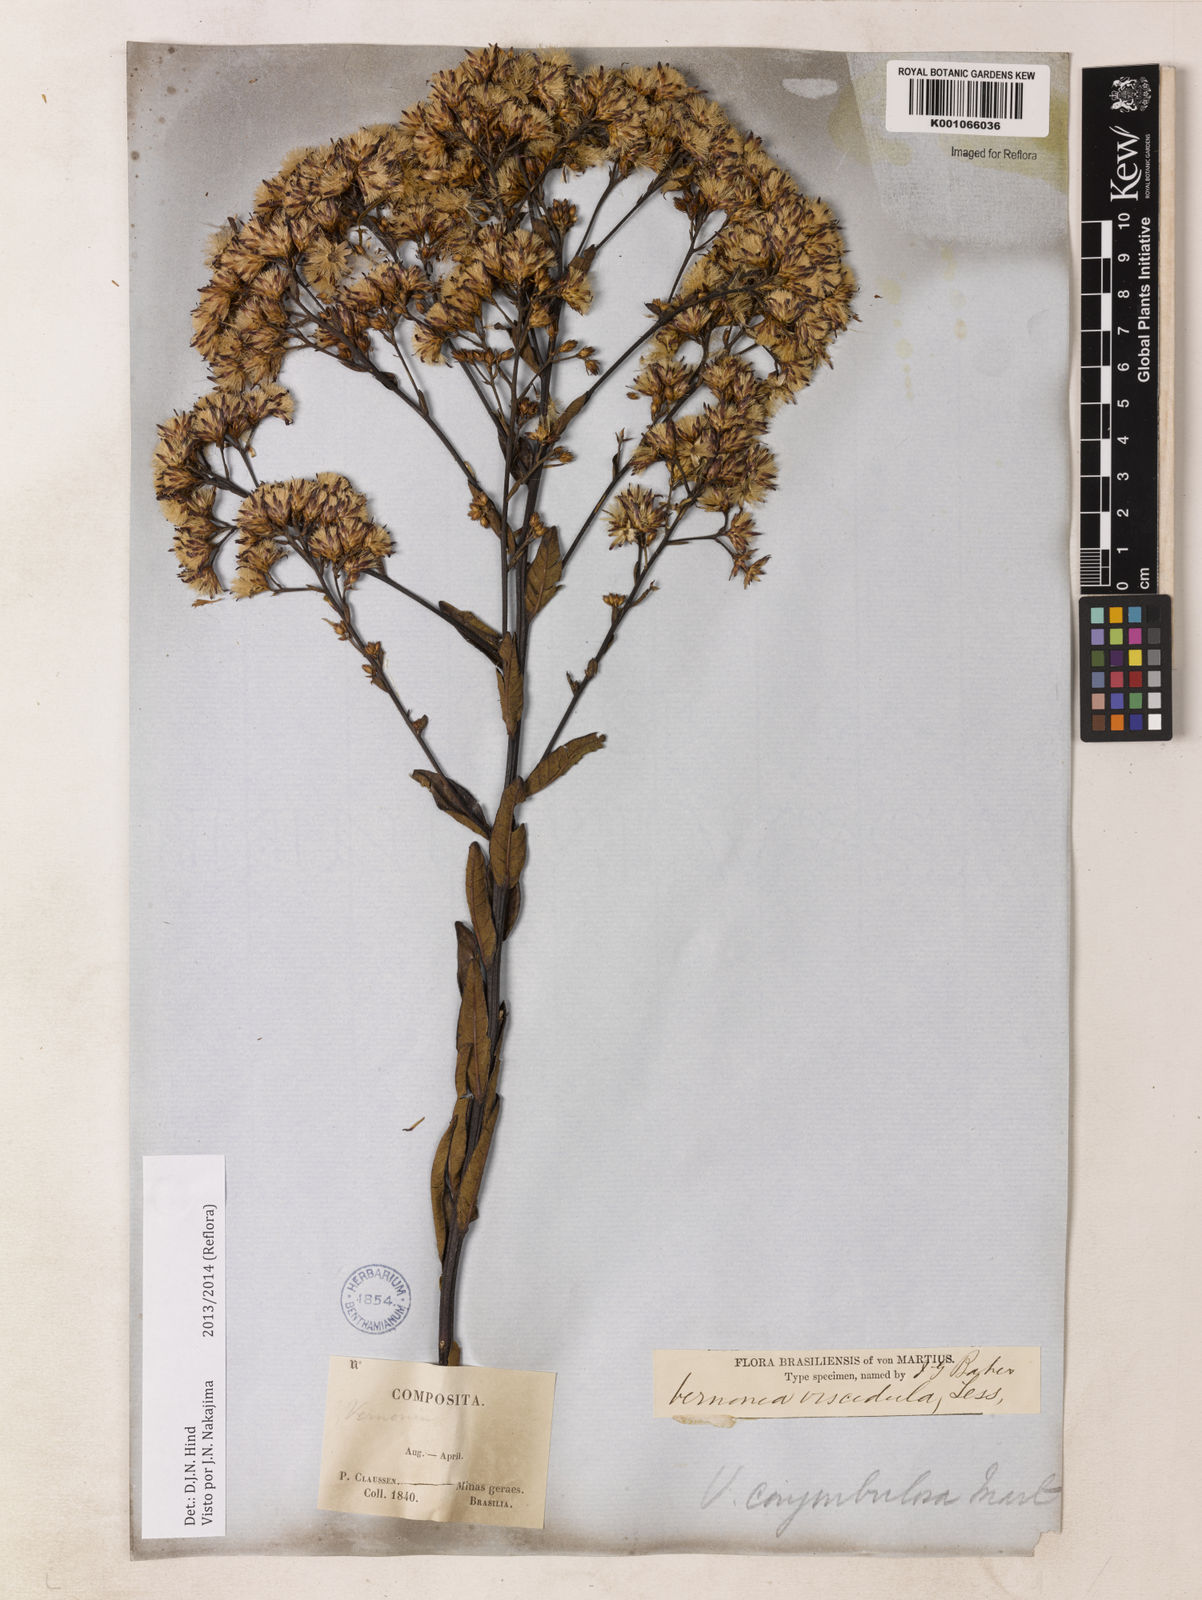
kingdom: Plantae
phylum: Tracheophyta
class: Magnoliopsida
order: Asterales
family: Asteraceae
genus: Vernonanthura
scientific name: Vernonanthura viscidula
